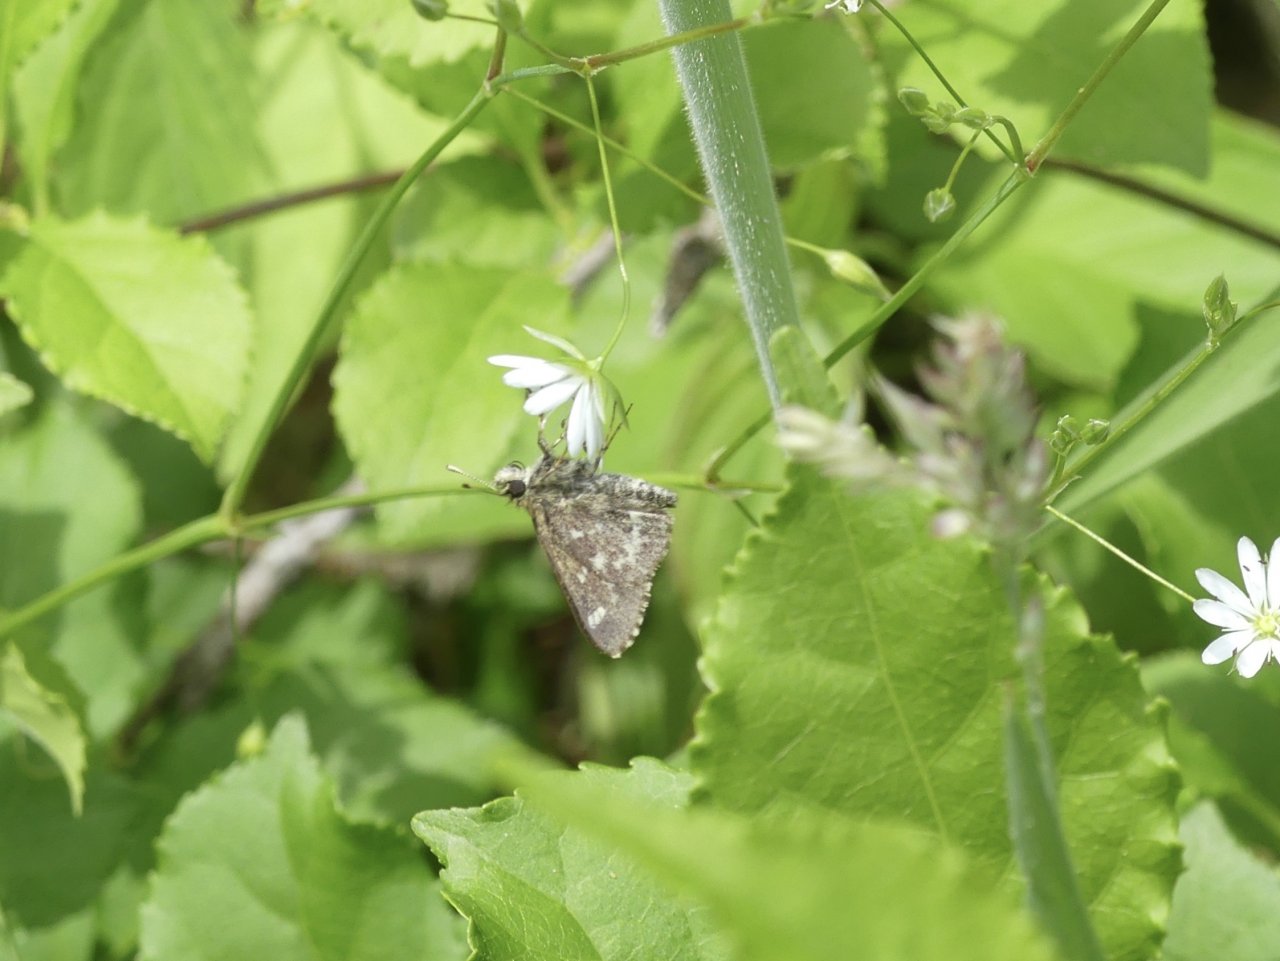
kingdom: Animalia
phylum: Arthropoda
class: Insecta
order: Lepidoptera
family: Hesperiidae
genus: Mastor
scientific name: Mastor hegon
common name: Pepper and Salt Skipper
